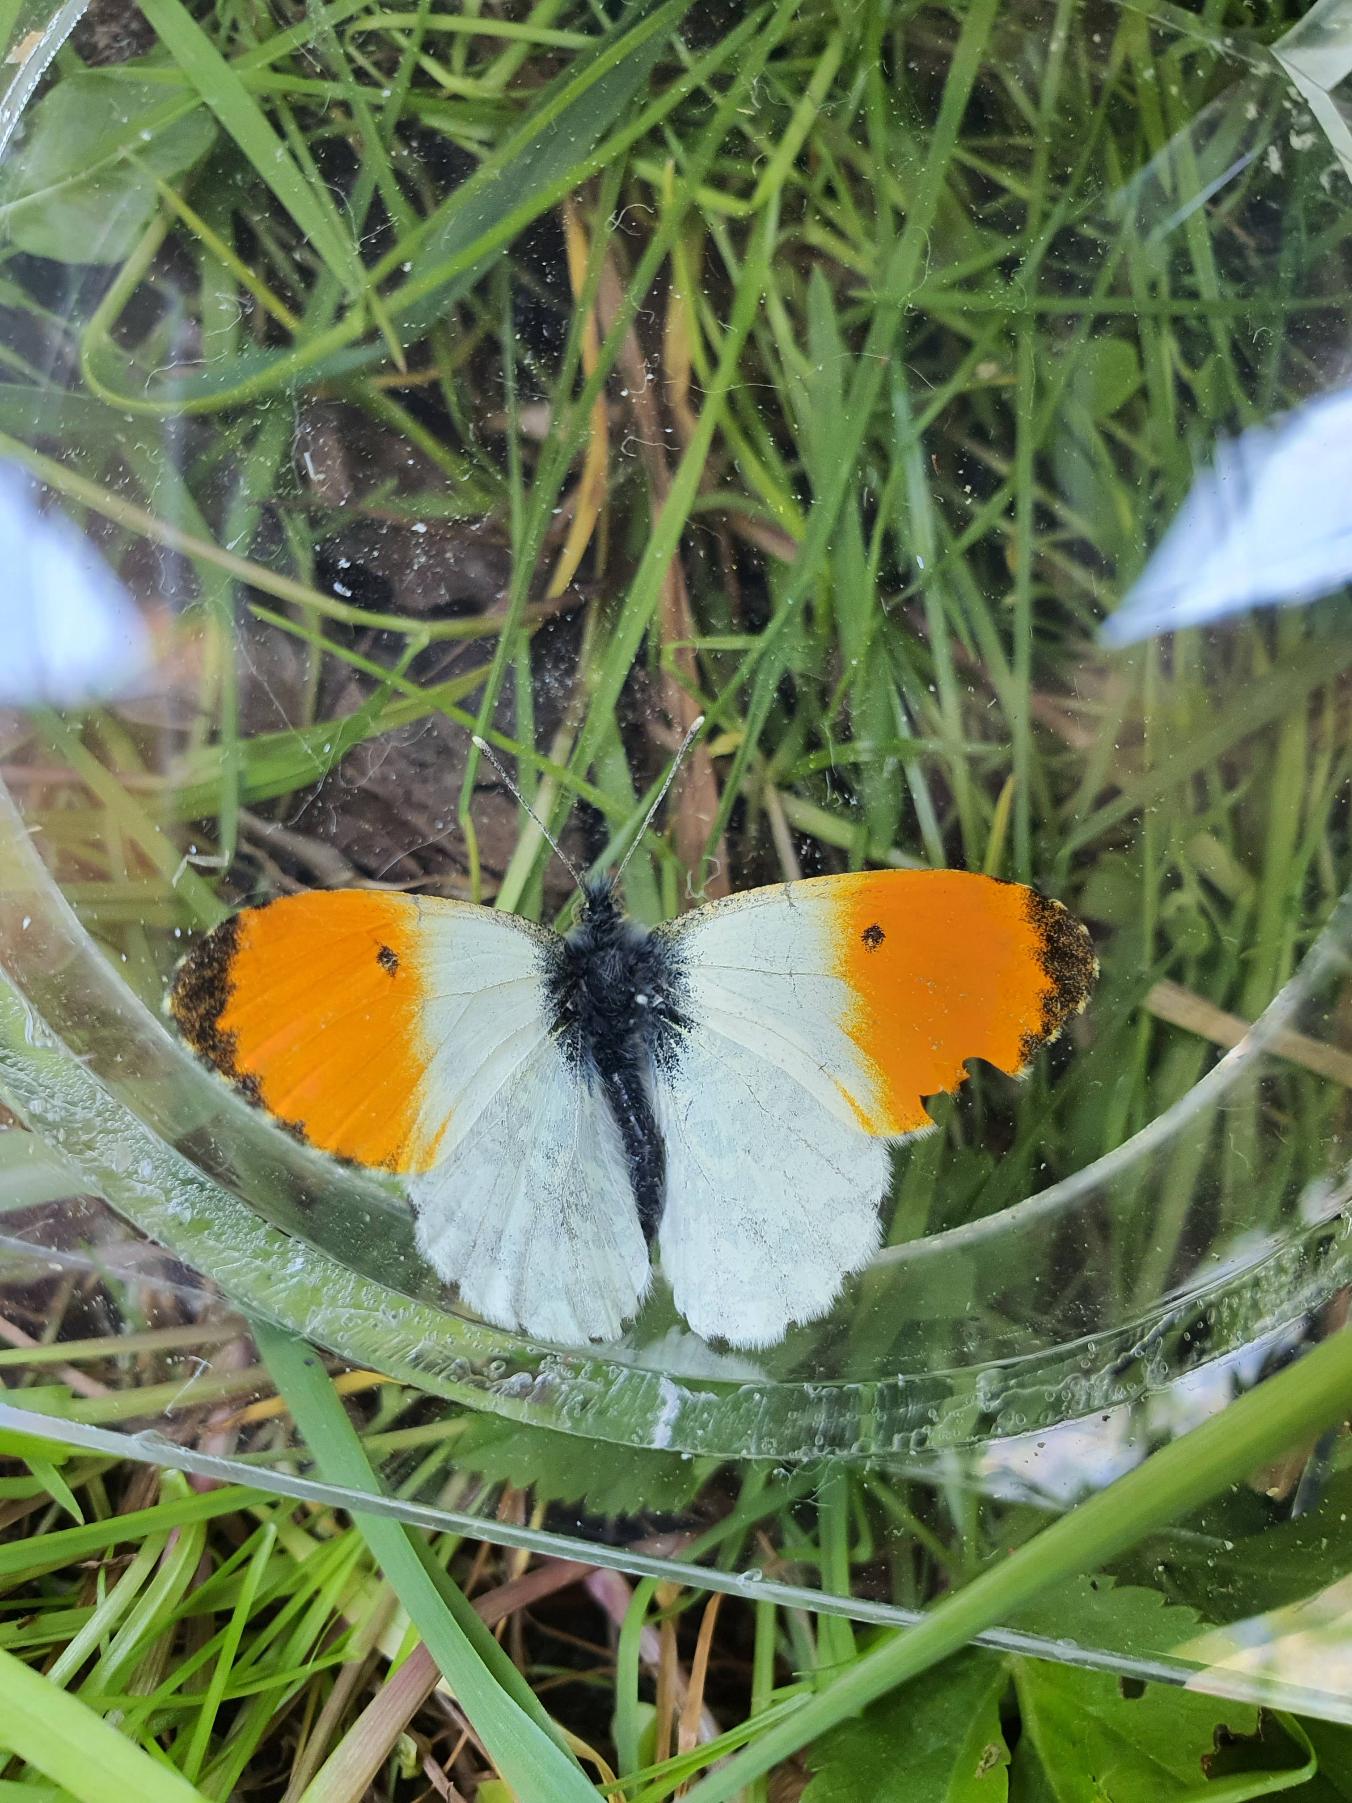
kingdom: Animalia
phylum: Arthropoda
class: Insecta
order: Lepidoptera
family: Pieridae
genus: Anthocharis
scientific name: Anthocharis cardamines
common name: Aurora
